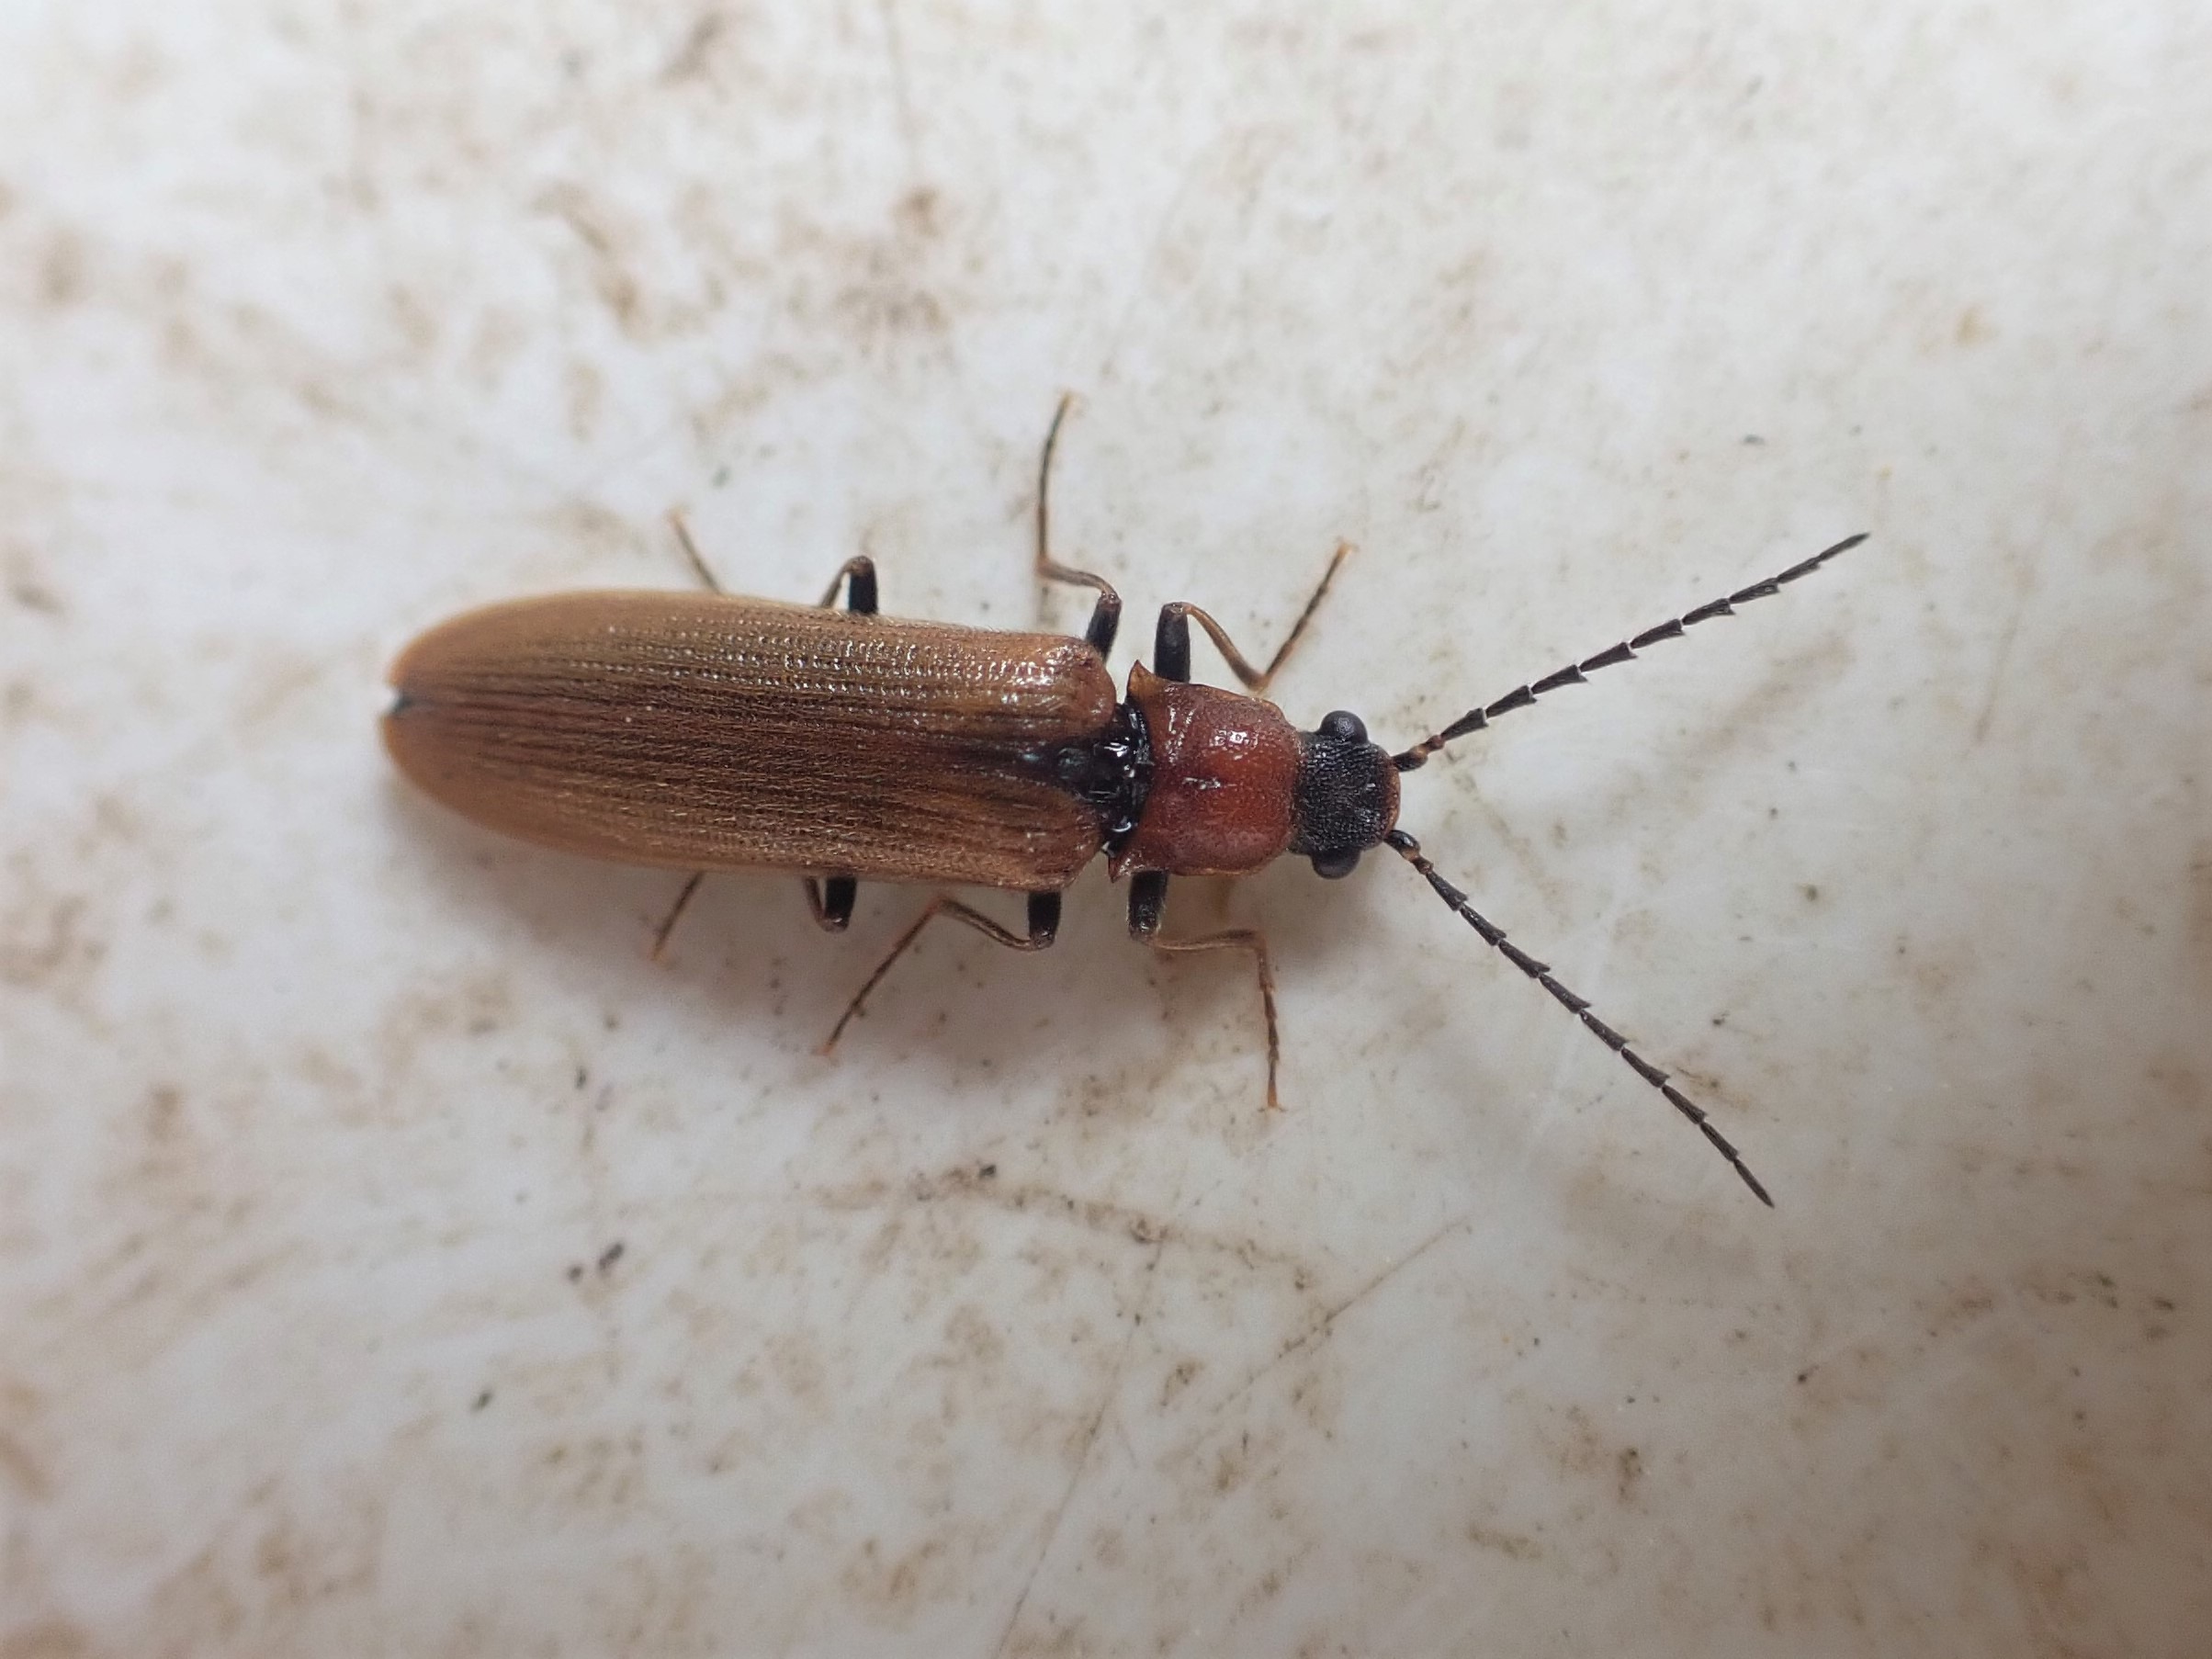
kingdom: Animalia
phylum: Arthropoda
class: Insecta
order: Coleoptera
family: Elateridae
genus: Denticollis
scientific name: Denticollis linearis
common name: Almindelig sirsmælder
